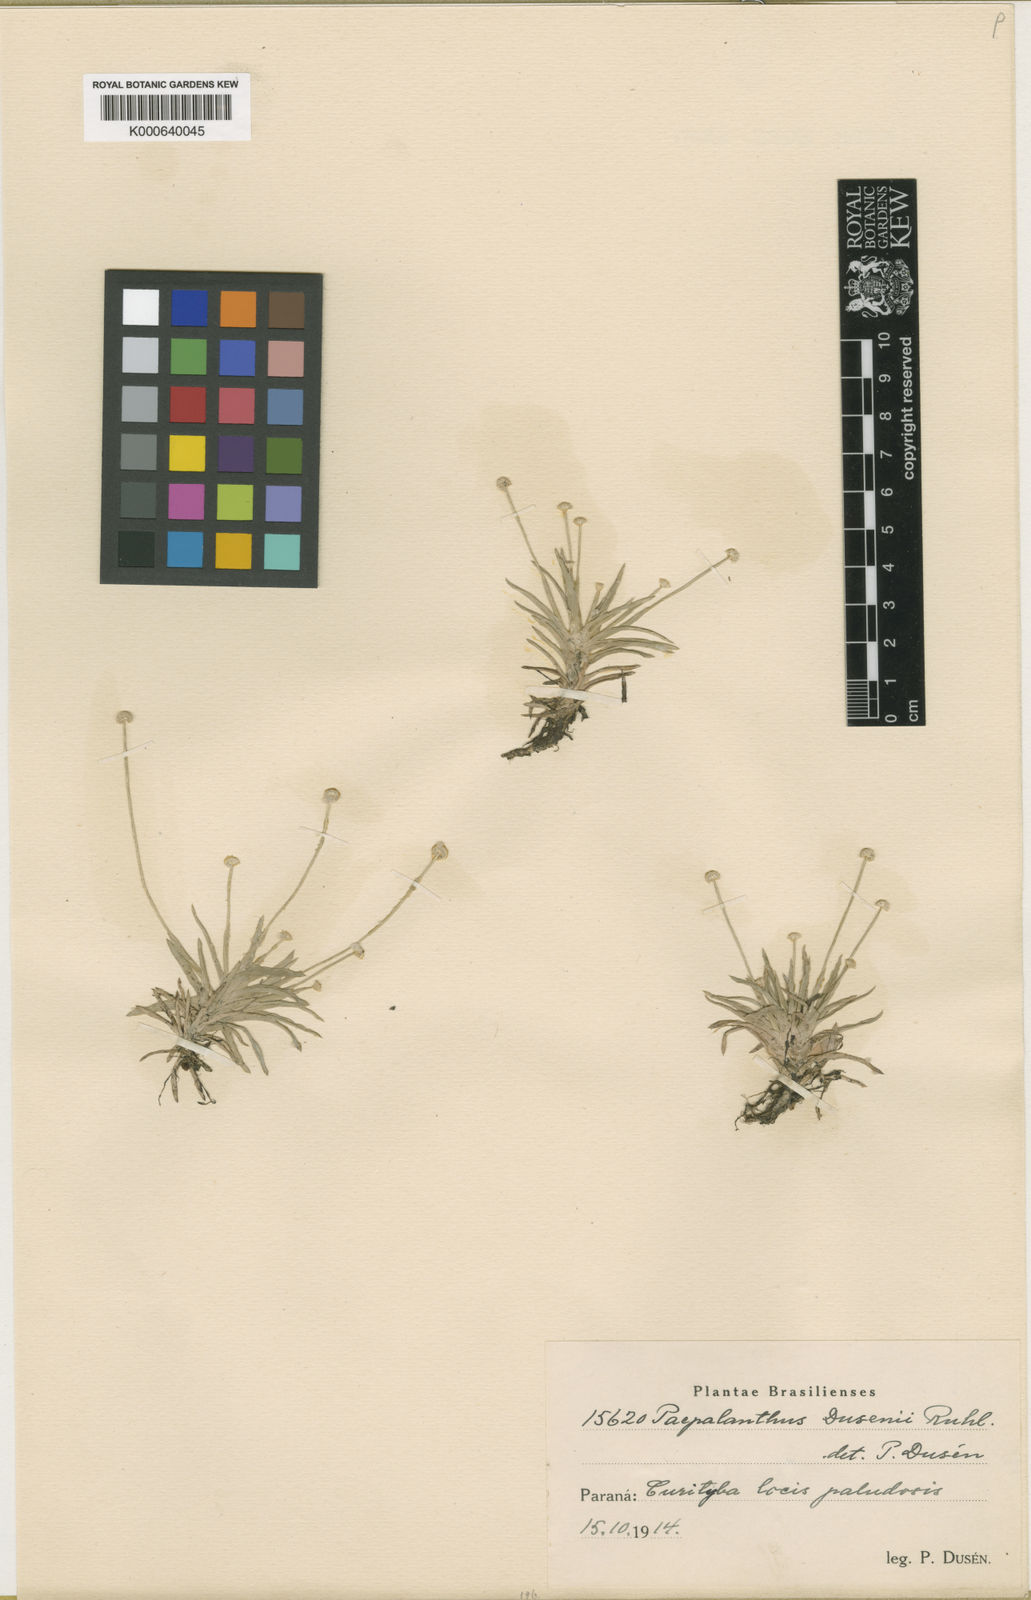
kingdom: Plantae
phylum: Tracheophyta
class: Liliopsida
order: Poales
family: Eriocaulaceae
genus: Paepalanthus
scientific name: Paepalanthus
